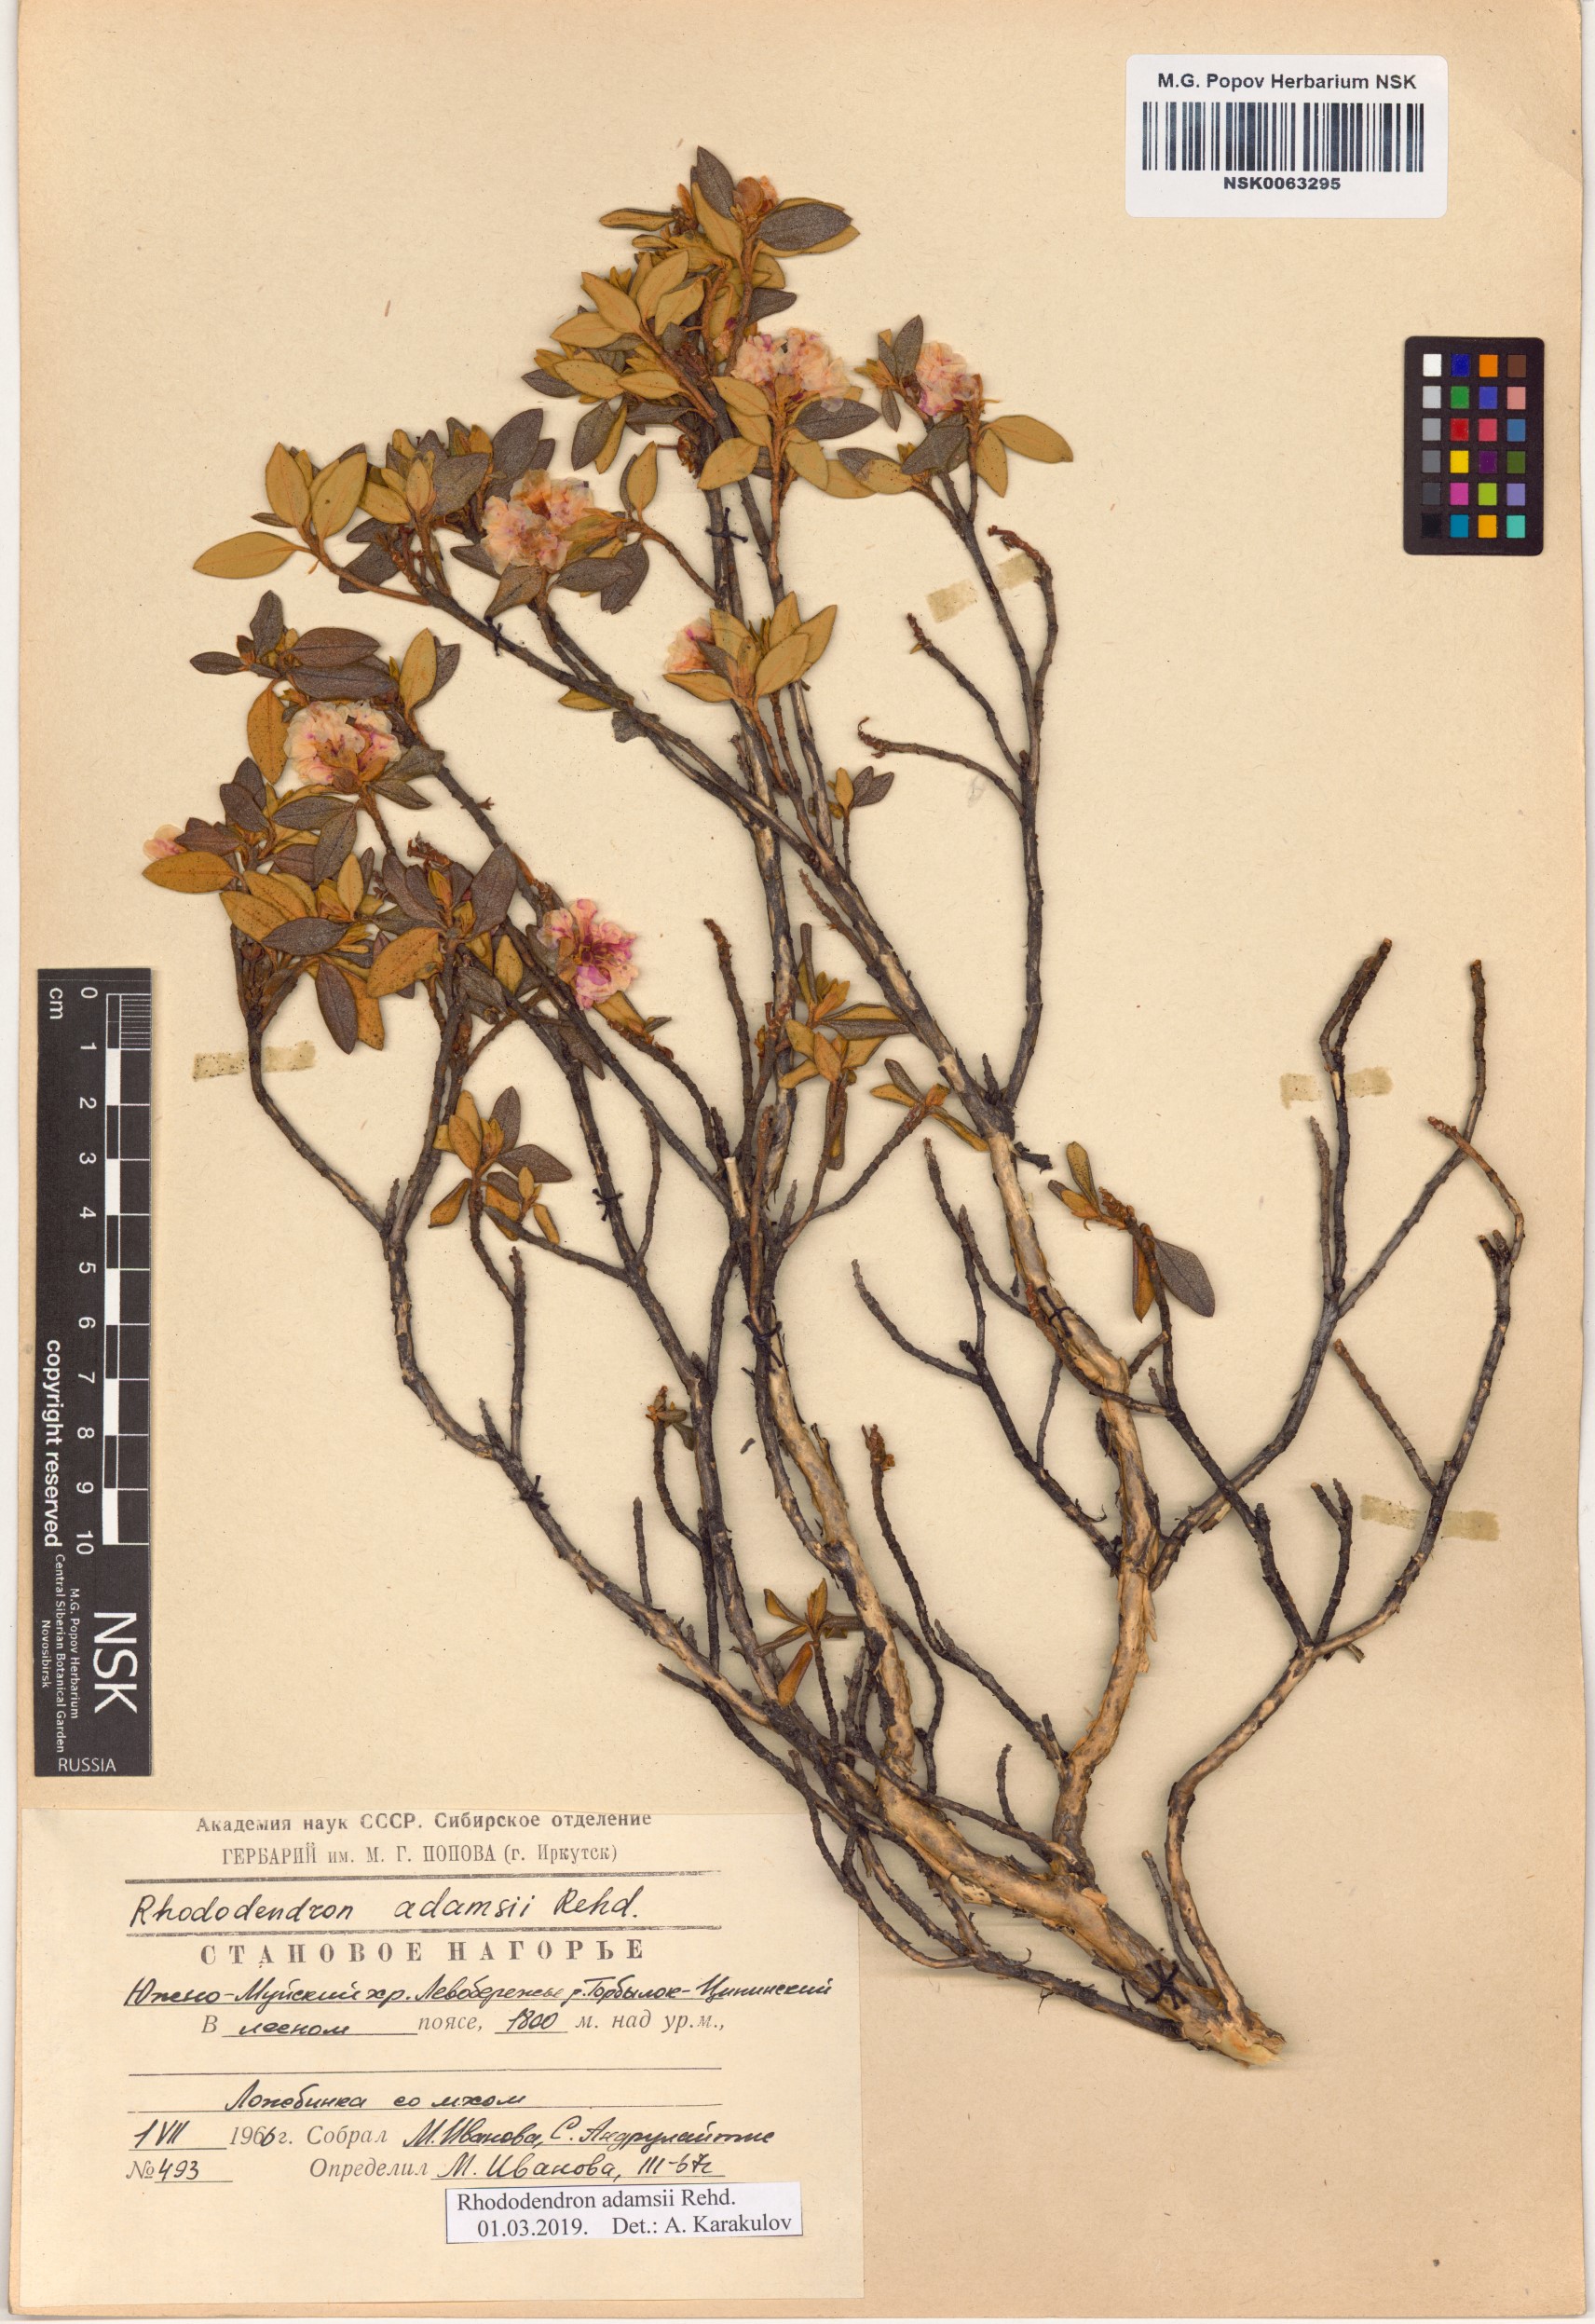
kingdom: Plantae
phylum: Tracheophyta
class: Magnoliopsida
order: Ericales
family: Ericaceae
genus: Rhododendron
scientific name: Rhododendron adamsii
